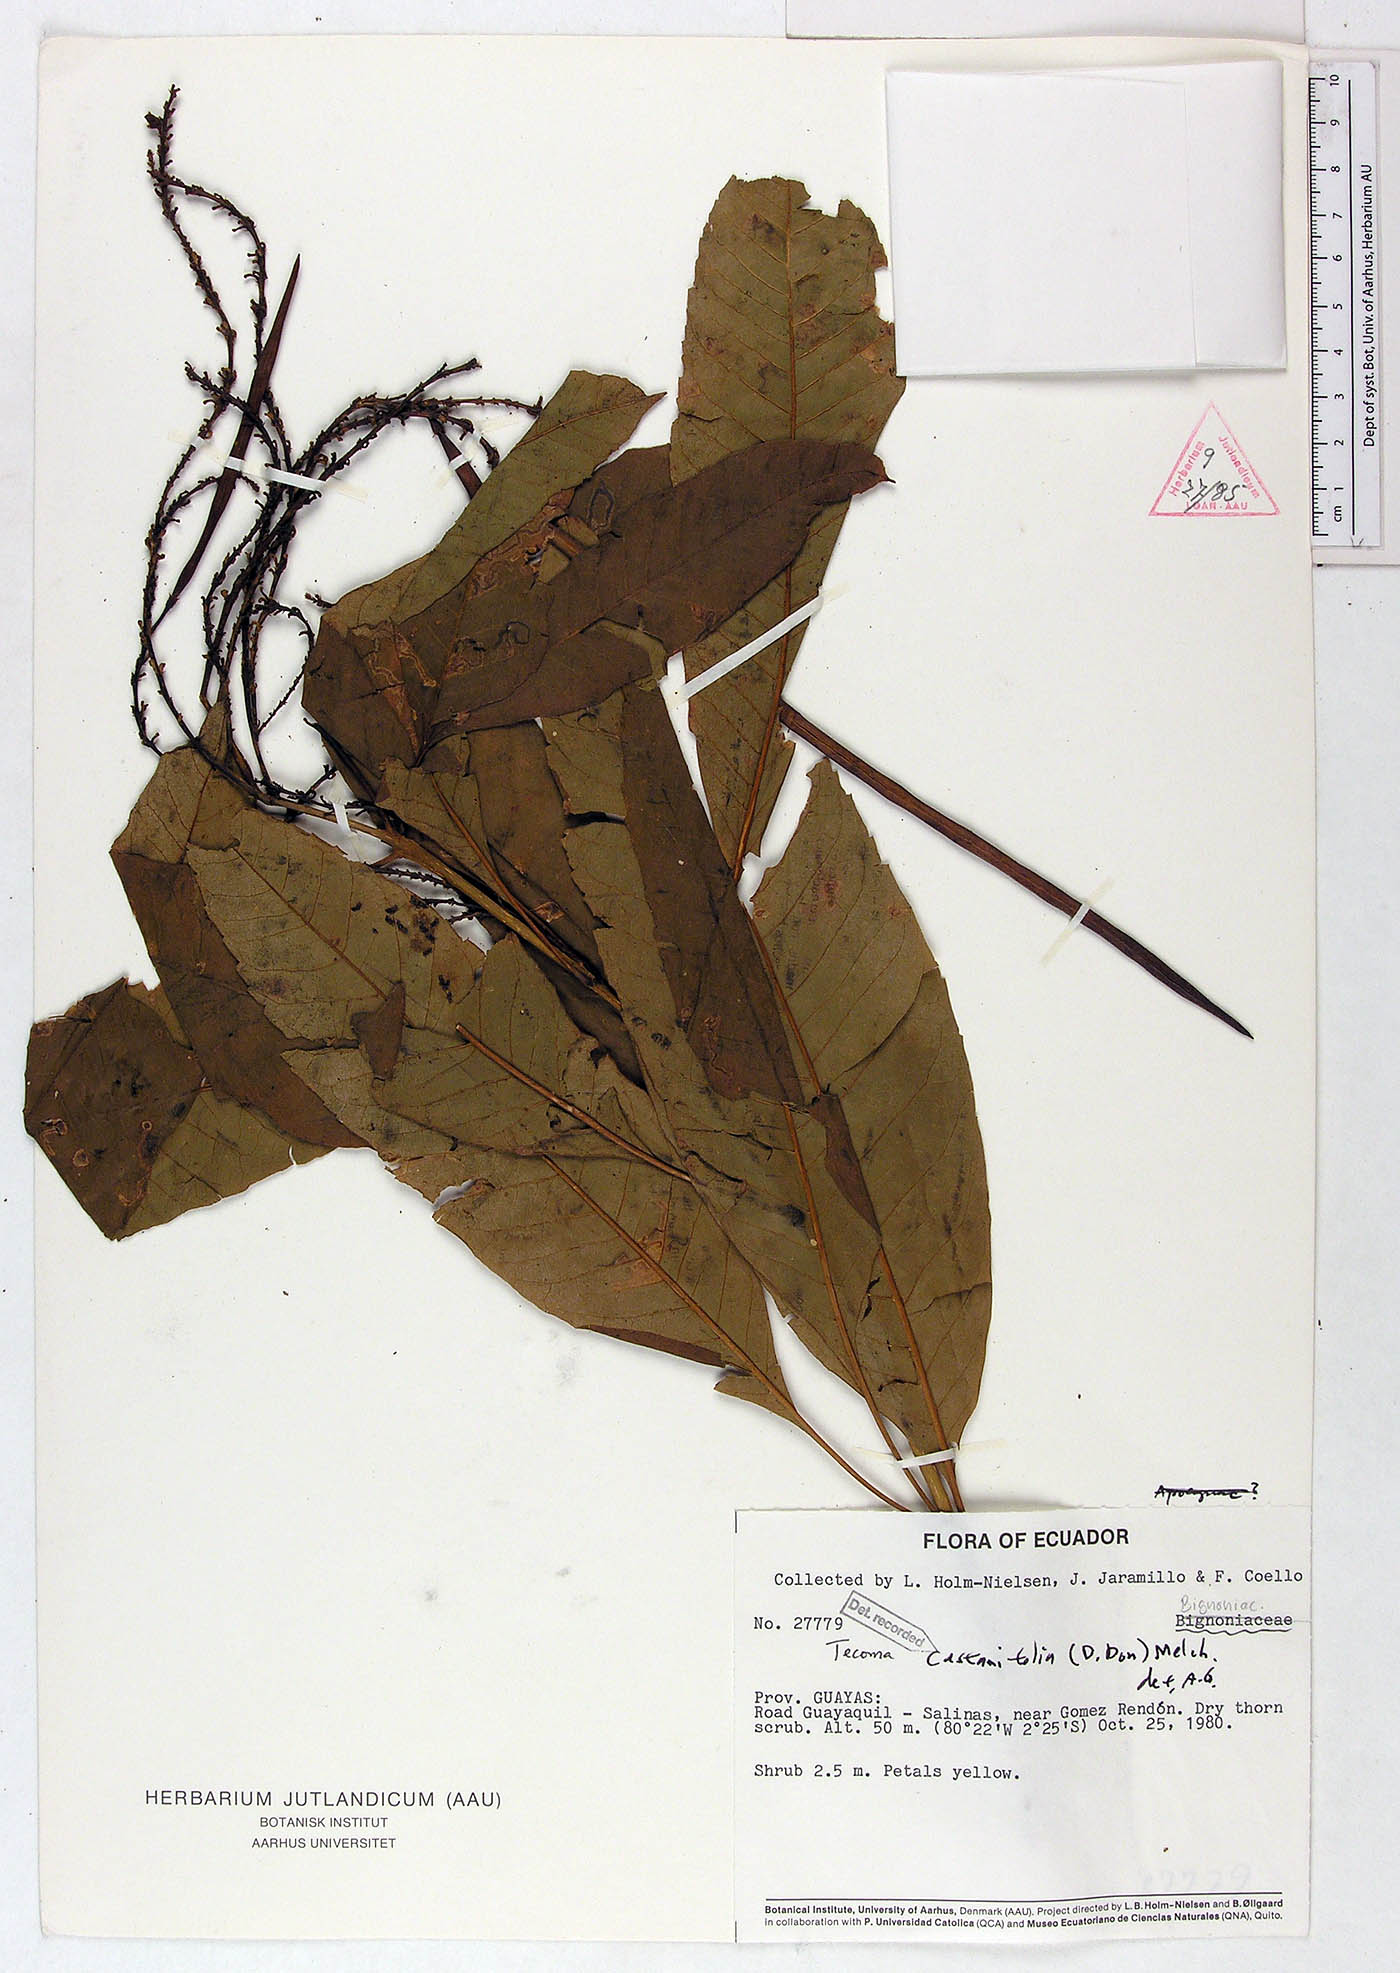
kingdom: Plantae
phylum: Tracheophyta
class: Magnoliopsida
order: Lamiales
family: Bignoniaceae
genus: Tecoma
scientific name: Tecoma castanifolia
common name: Chestnutleaf trumpetbush
